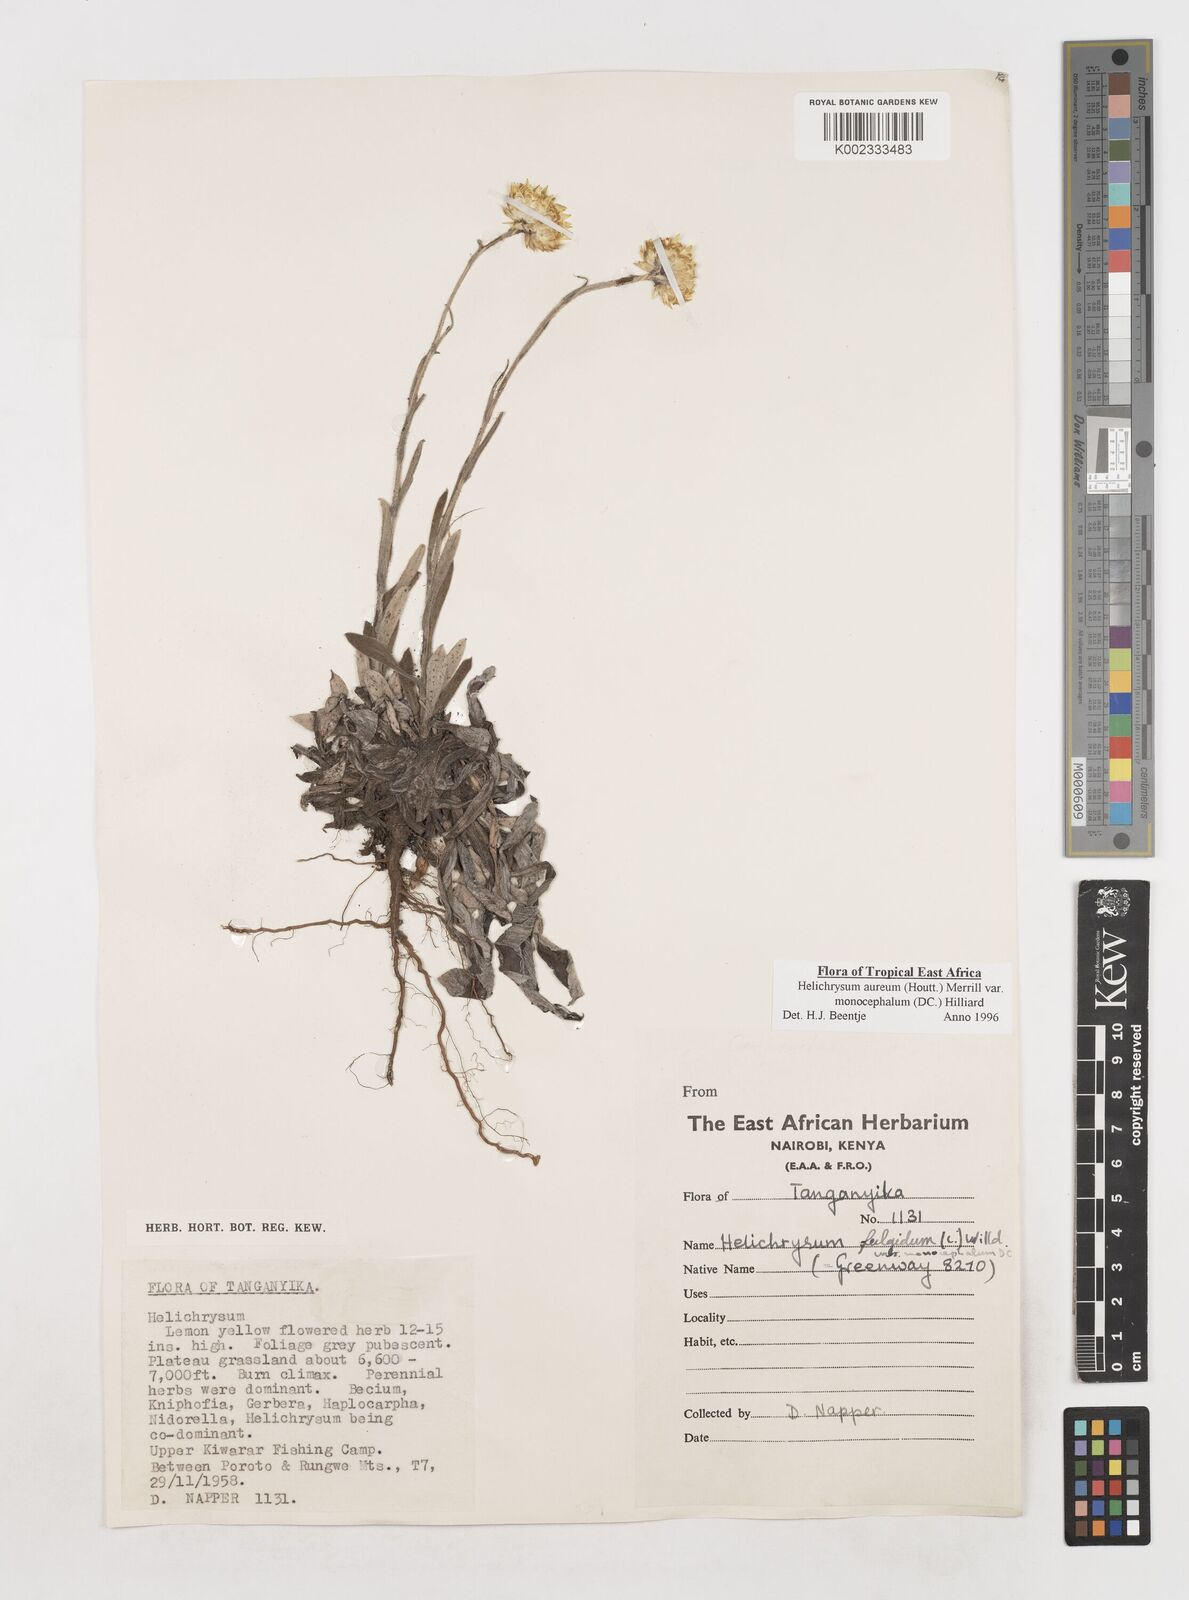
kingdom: Plantae
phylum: Tracheophyta
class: Magnoliopsida
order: Asterales
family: Asteraceae
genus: Helichrysum
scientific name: Helichrysum aureum
